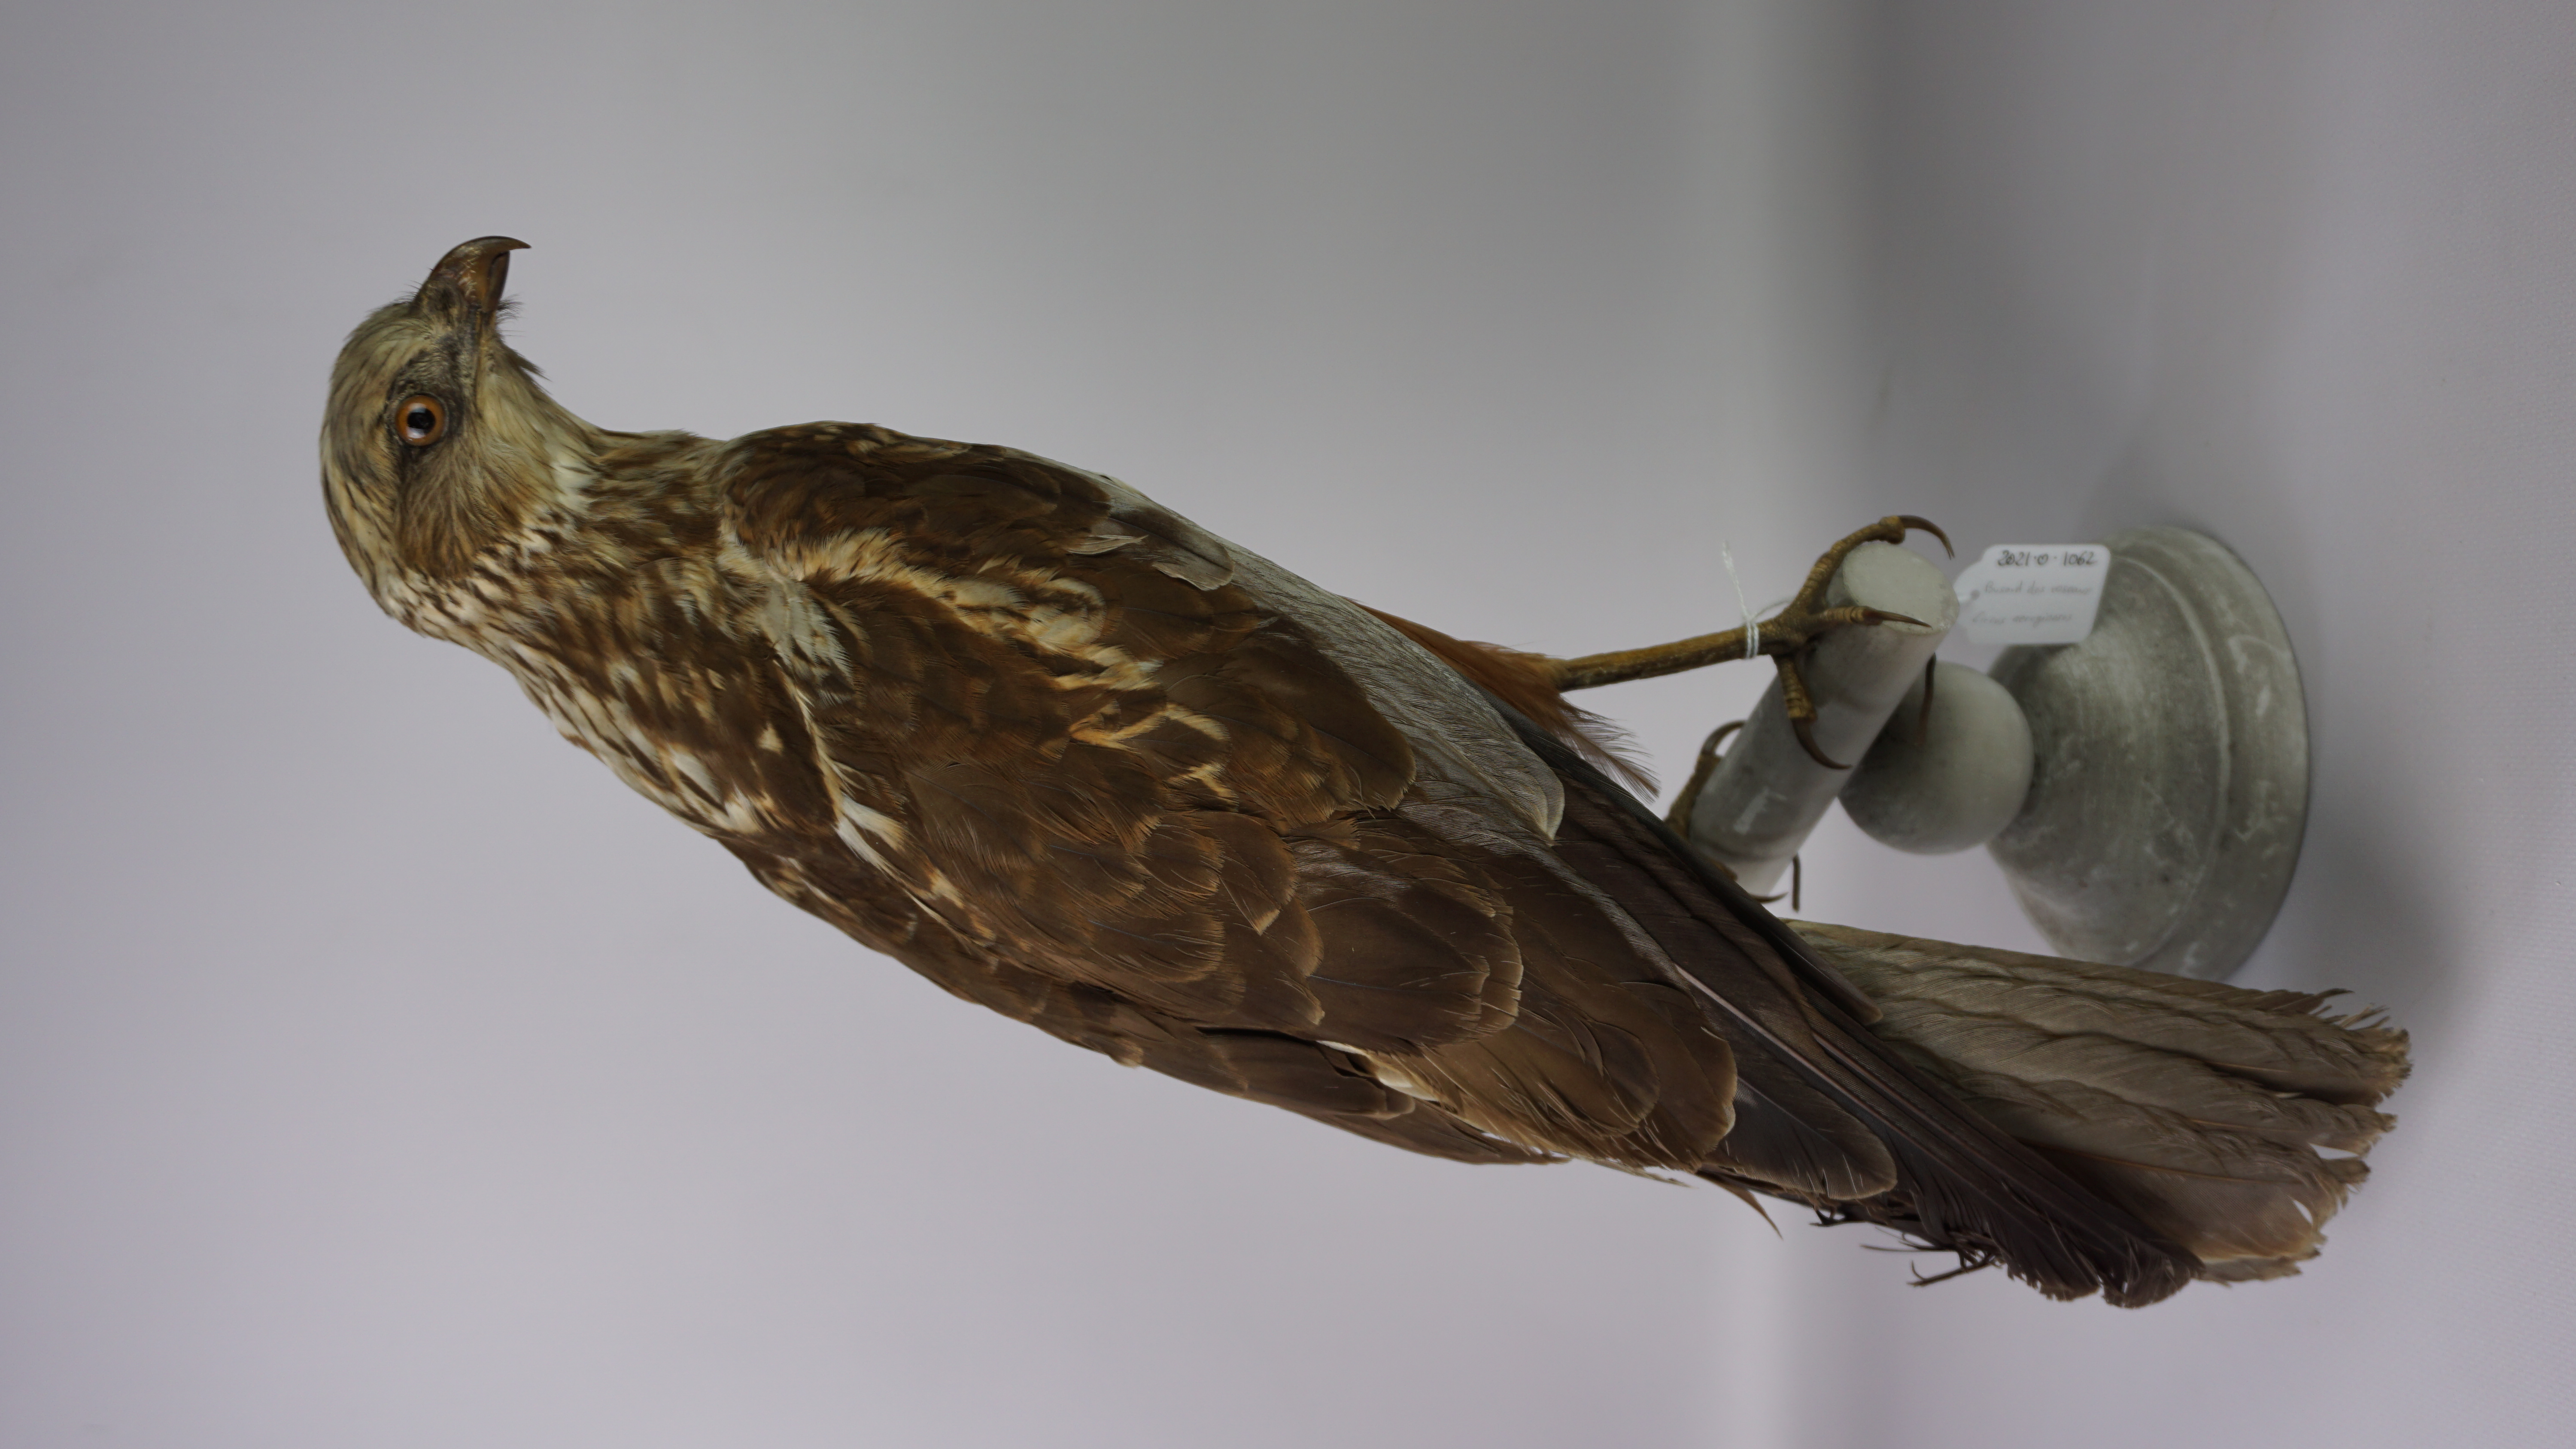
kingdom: Animalia
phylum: Chordata
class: Aves
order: Accipitriformes
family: Accipitridae
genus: Circus
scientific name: Circus aeruginosus
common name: Western marsh harrier
